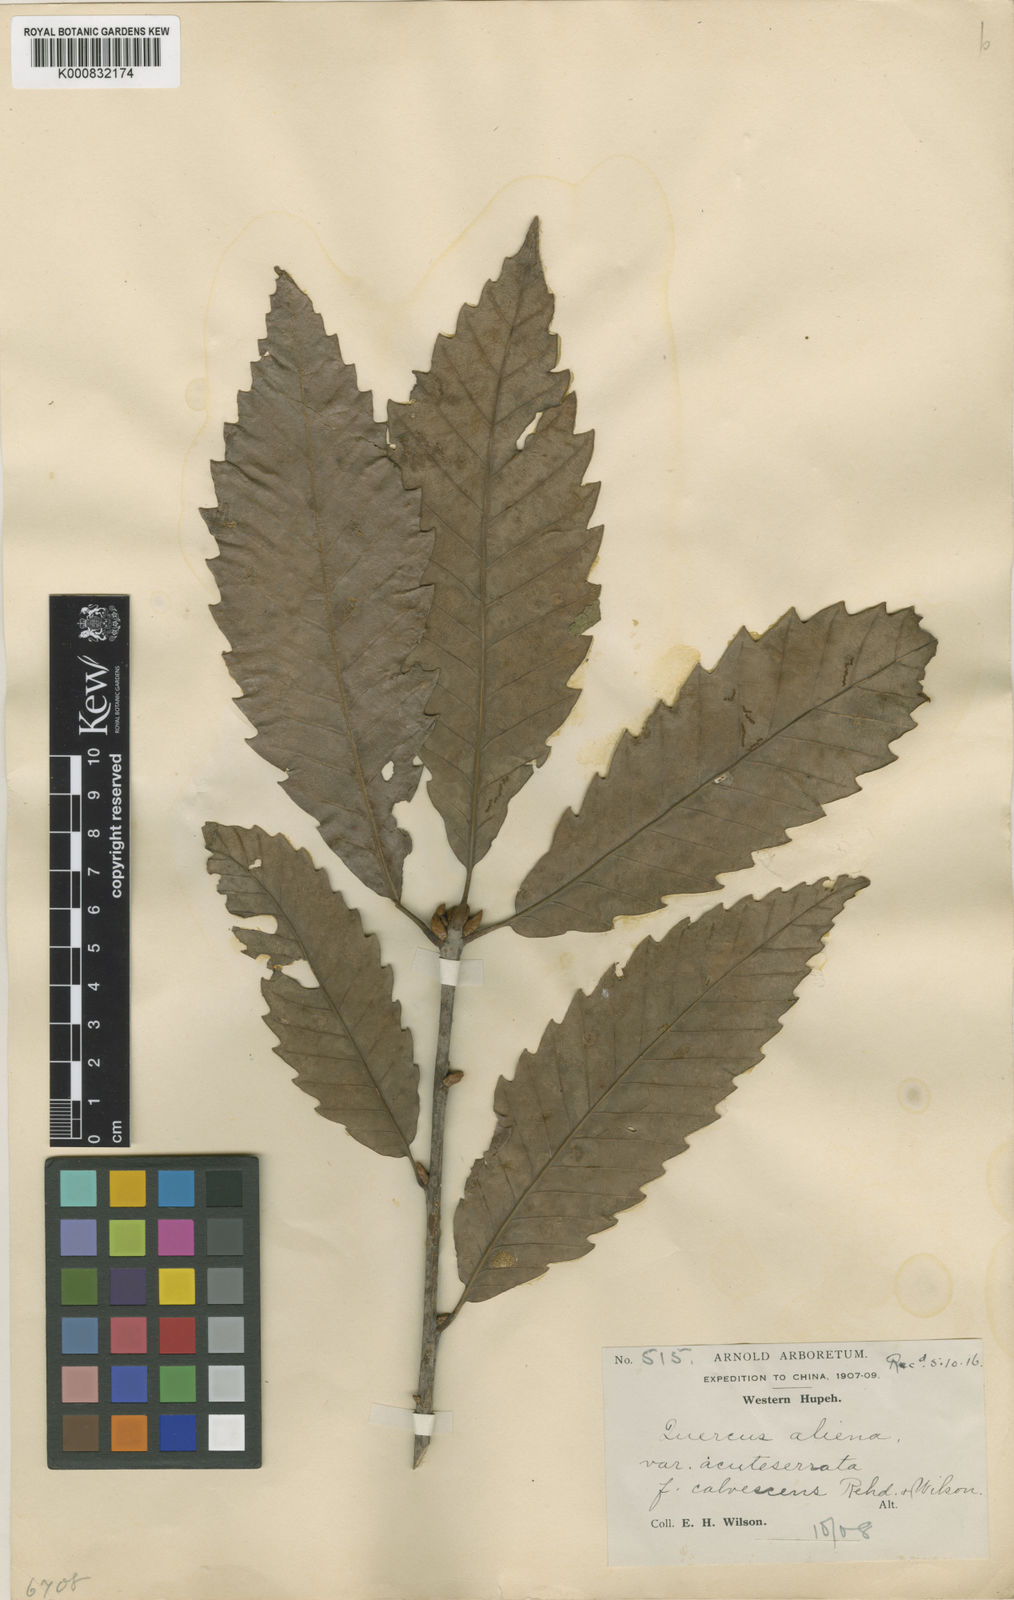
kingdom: Plantae
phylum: Tracheophyta
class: Magnoliopsida
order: Fagales
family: Fagaceae
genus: Quercus
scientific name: Quercus aliena
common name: Oriental white oak
